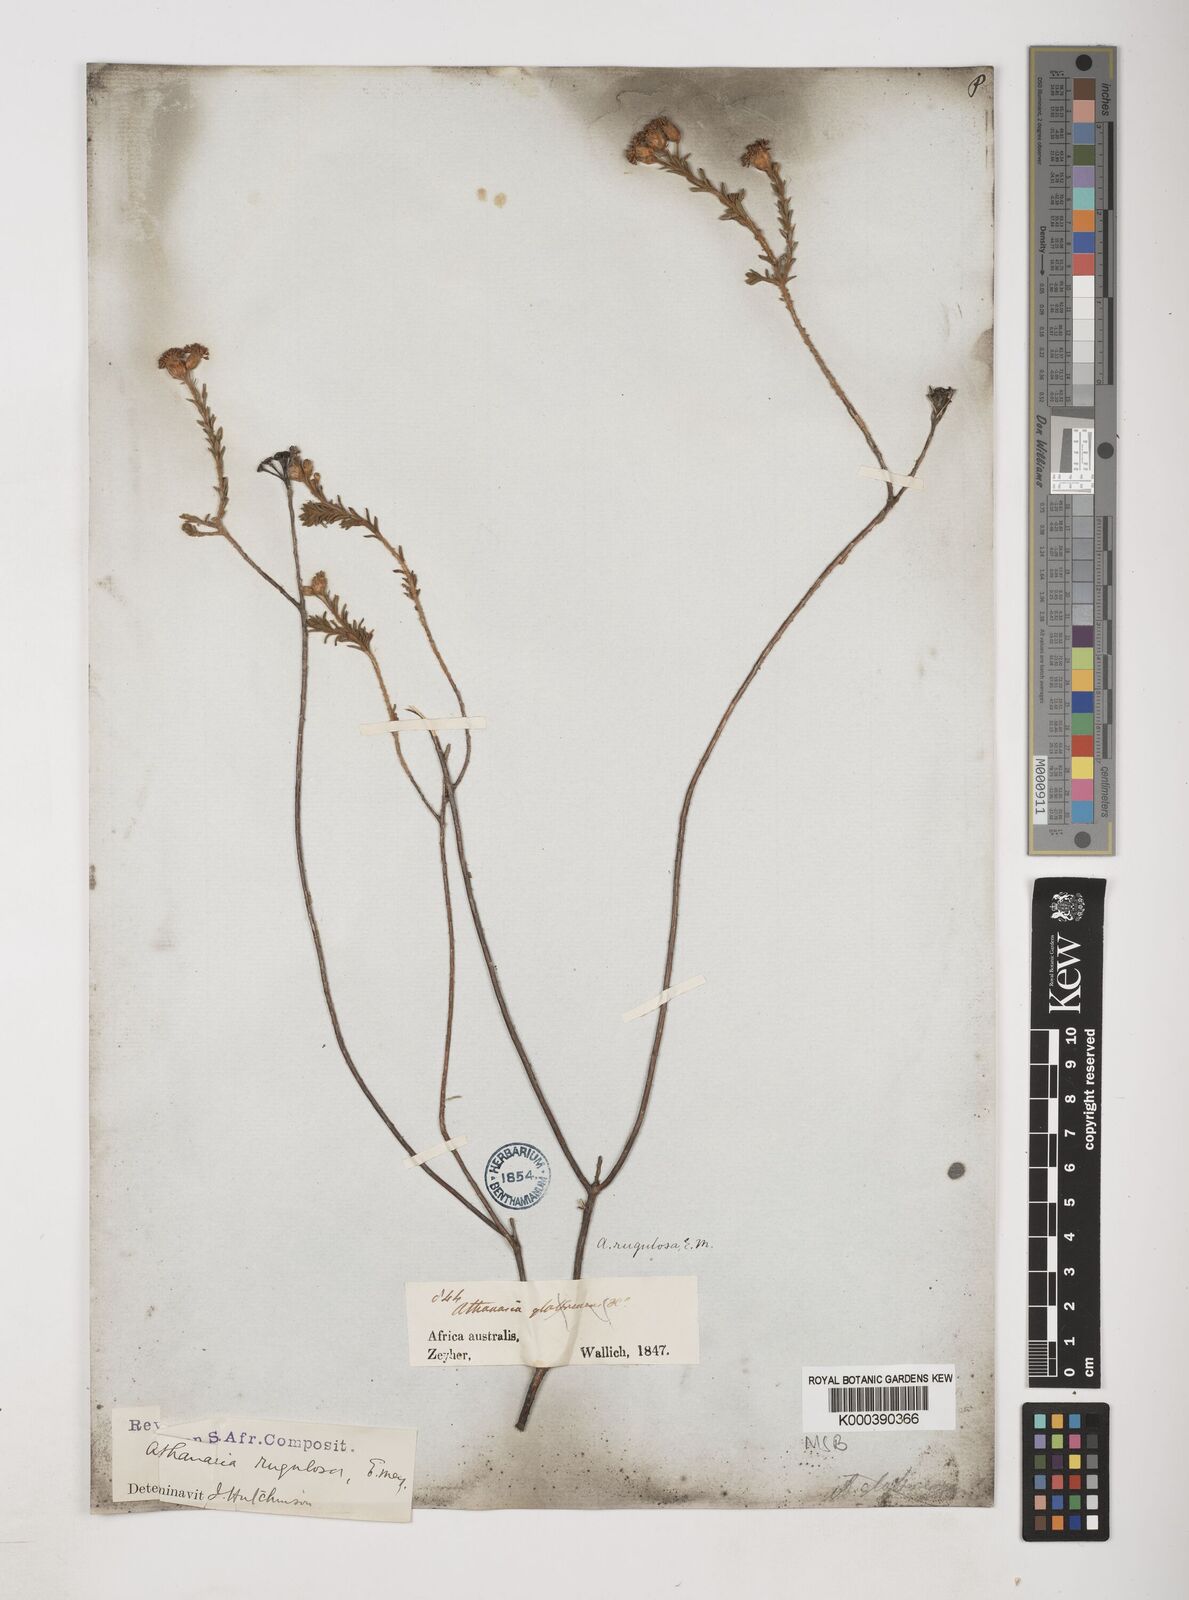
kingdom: Plantae
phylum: Tracheophyta
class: Magnoliopsida
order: Asterales
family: Asteraceae
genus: Athanasia
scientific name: Athanasia rugulosa
